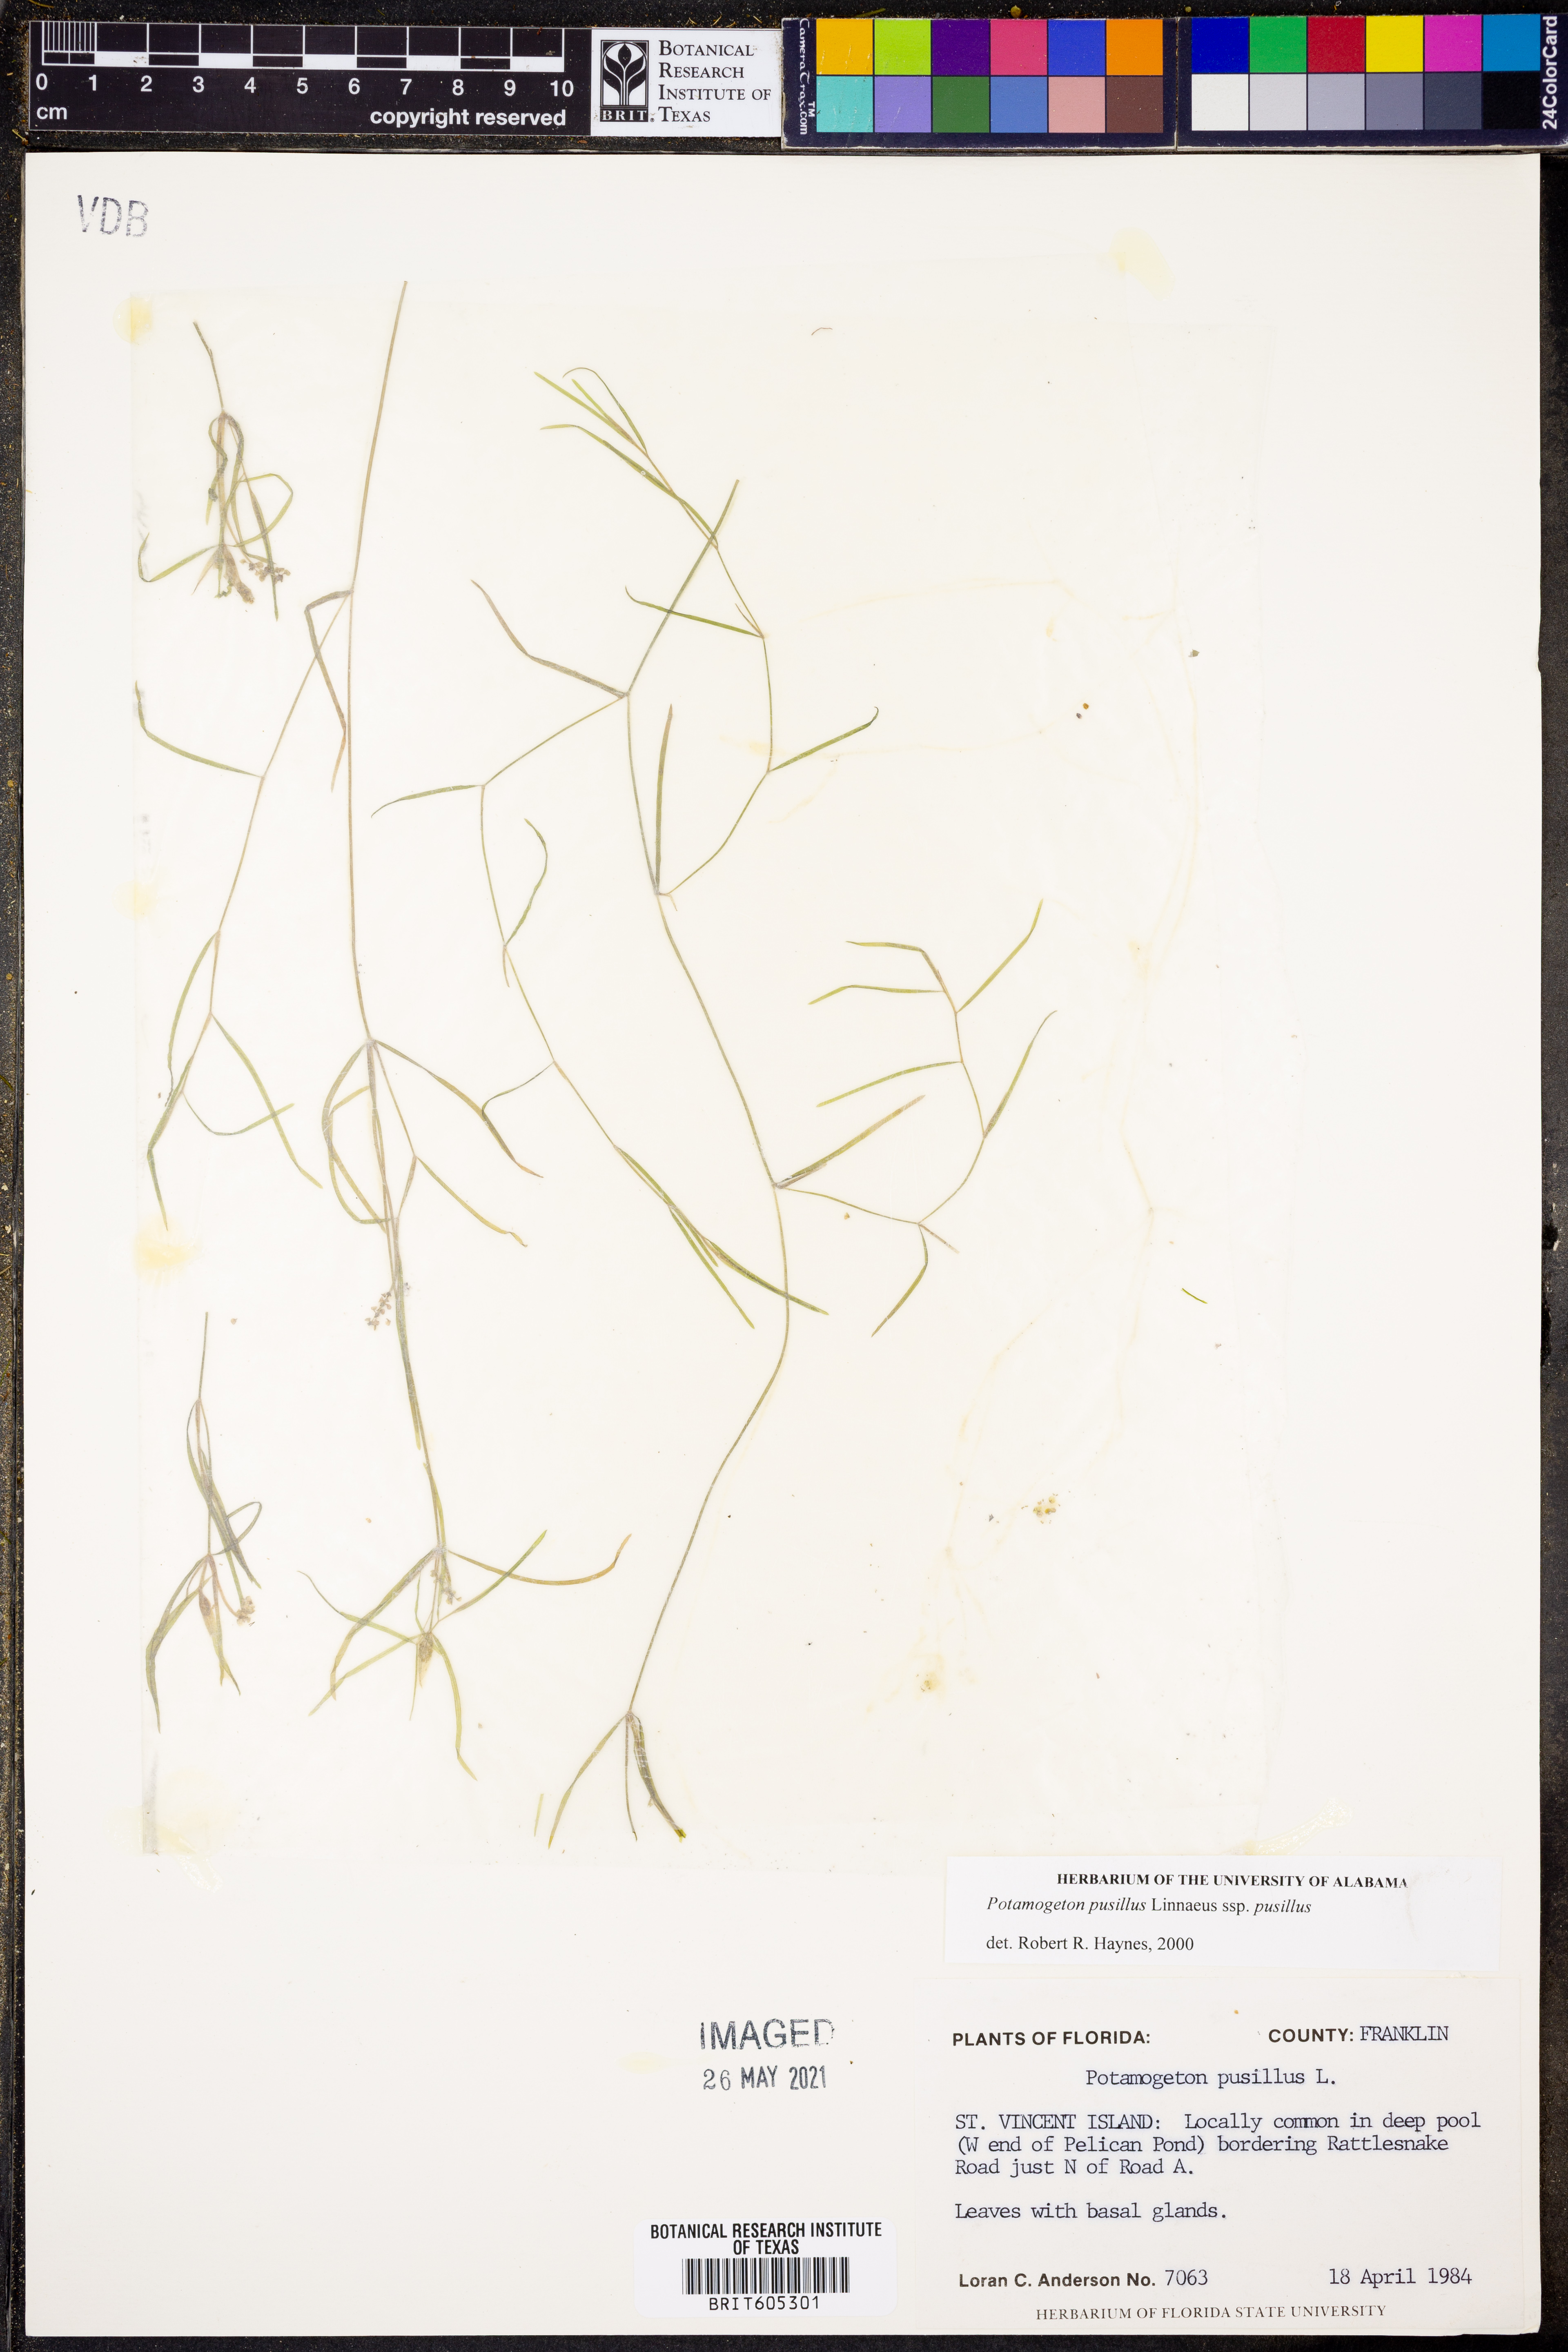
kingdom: Plantae
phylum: Tracheophyta
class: Liliopsida
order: Alismatales
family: Potamogetonaceae
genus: Potamogeton
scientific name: Potamogeton pusillus
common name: Lesser pondweed
